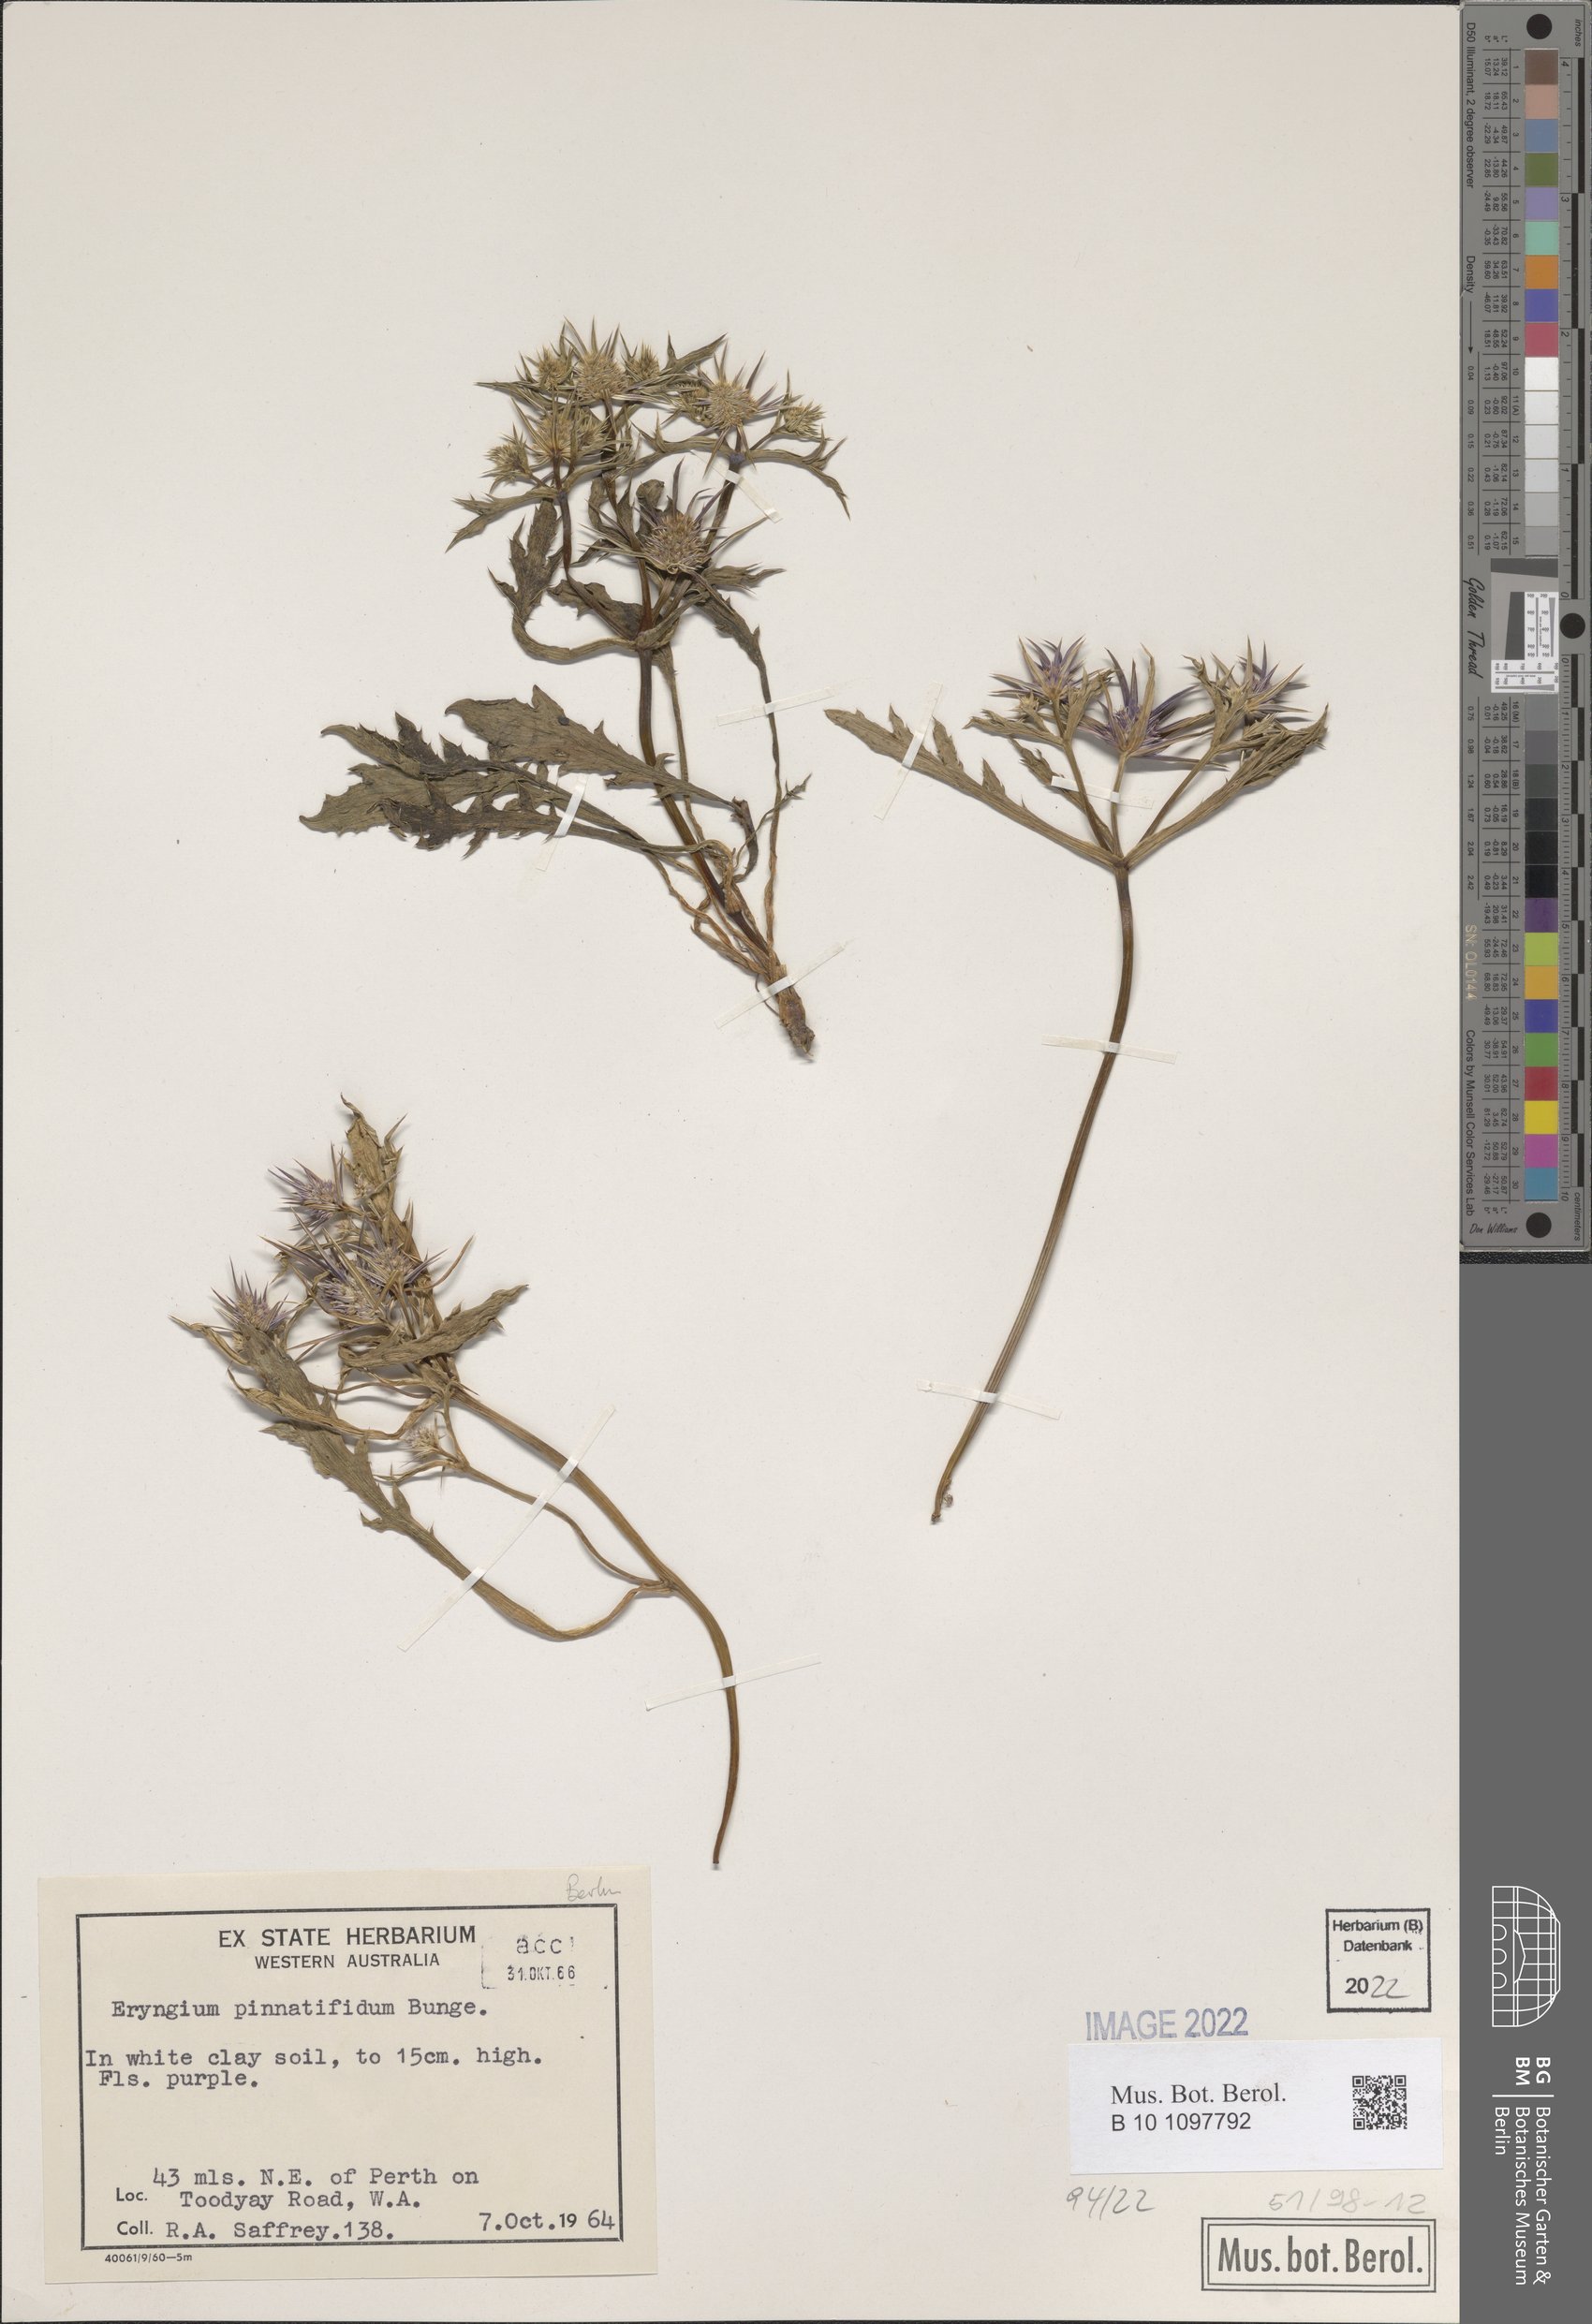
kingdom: Plantae
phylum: Tracheophyta
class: Magnoliopsida
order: Apiales
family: Apiaceae
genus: Eryngium
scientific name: Eryngium pinnatifidum
